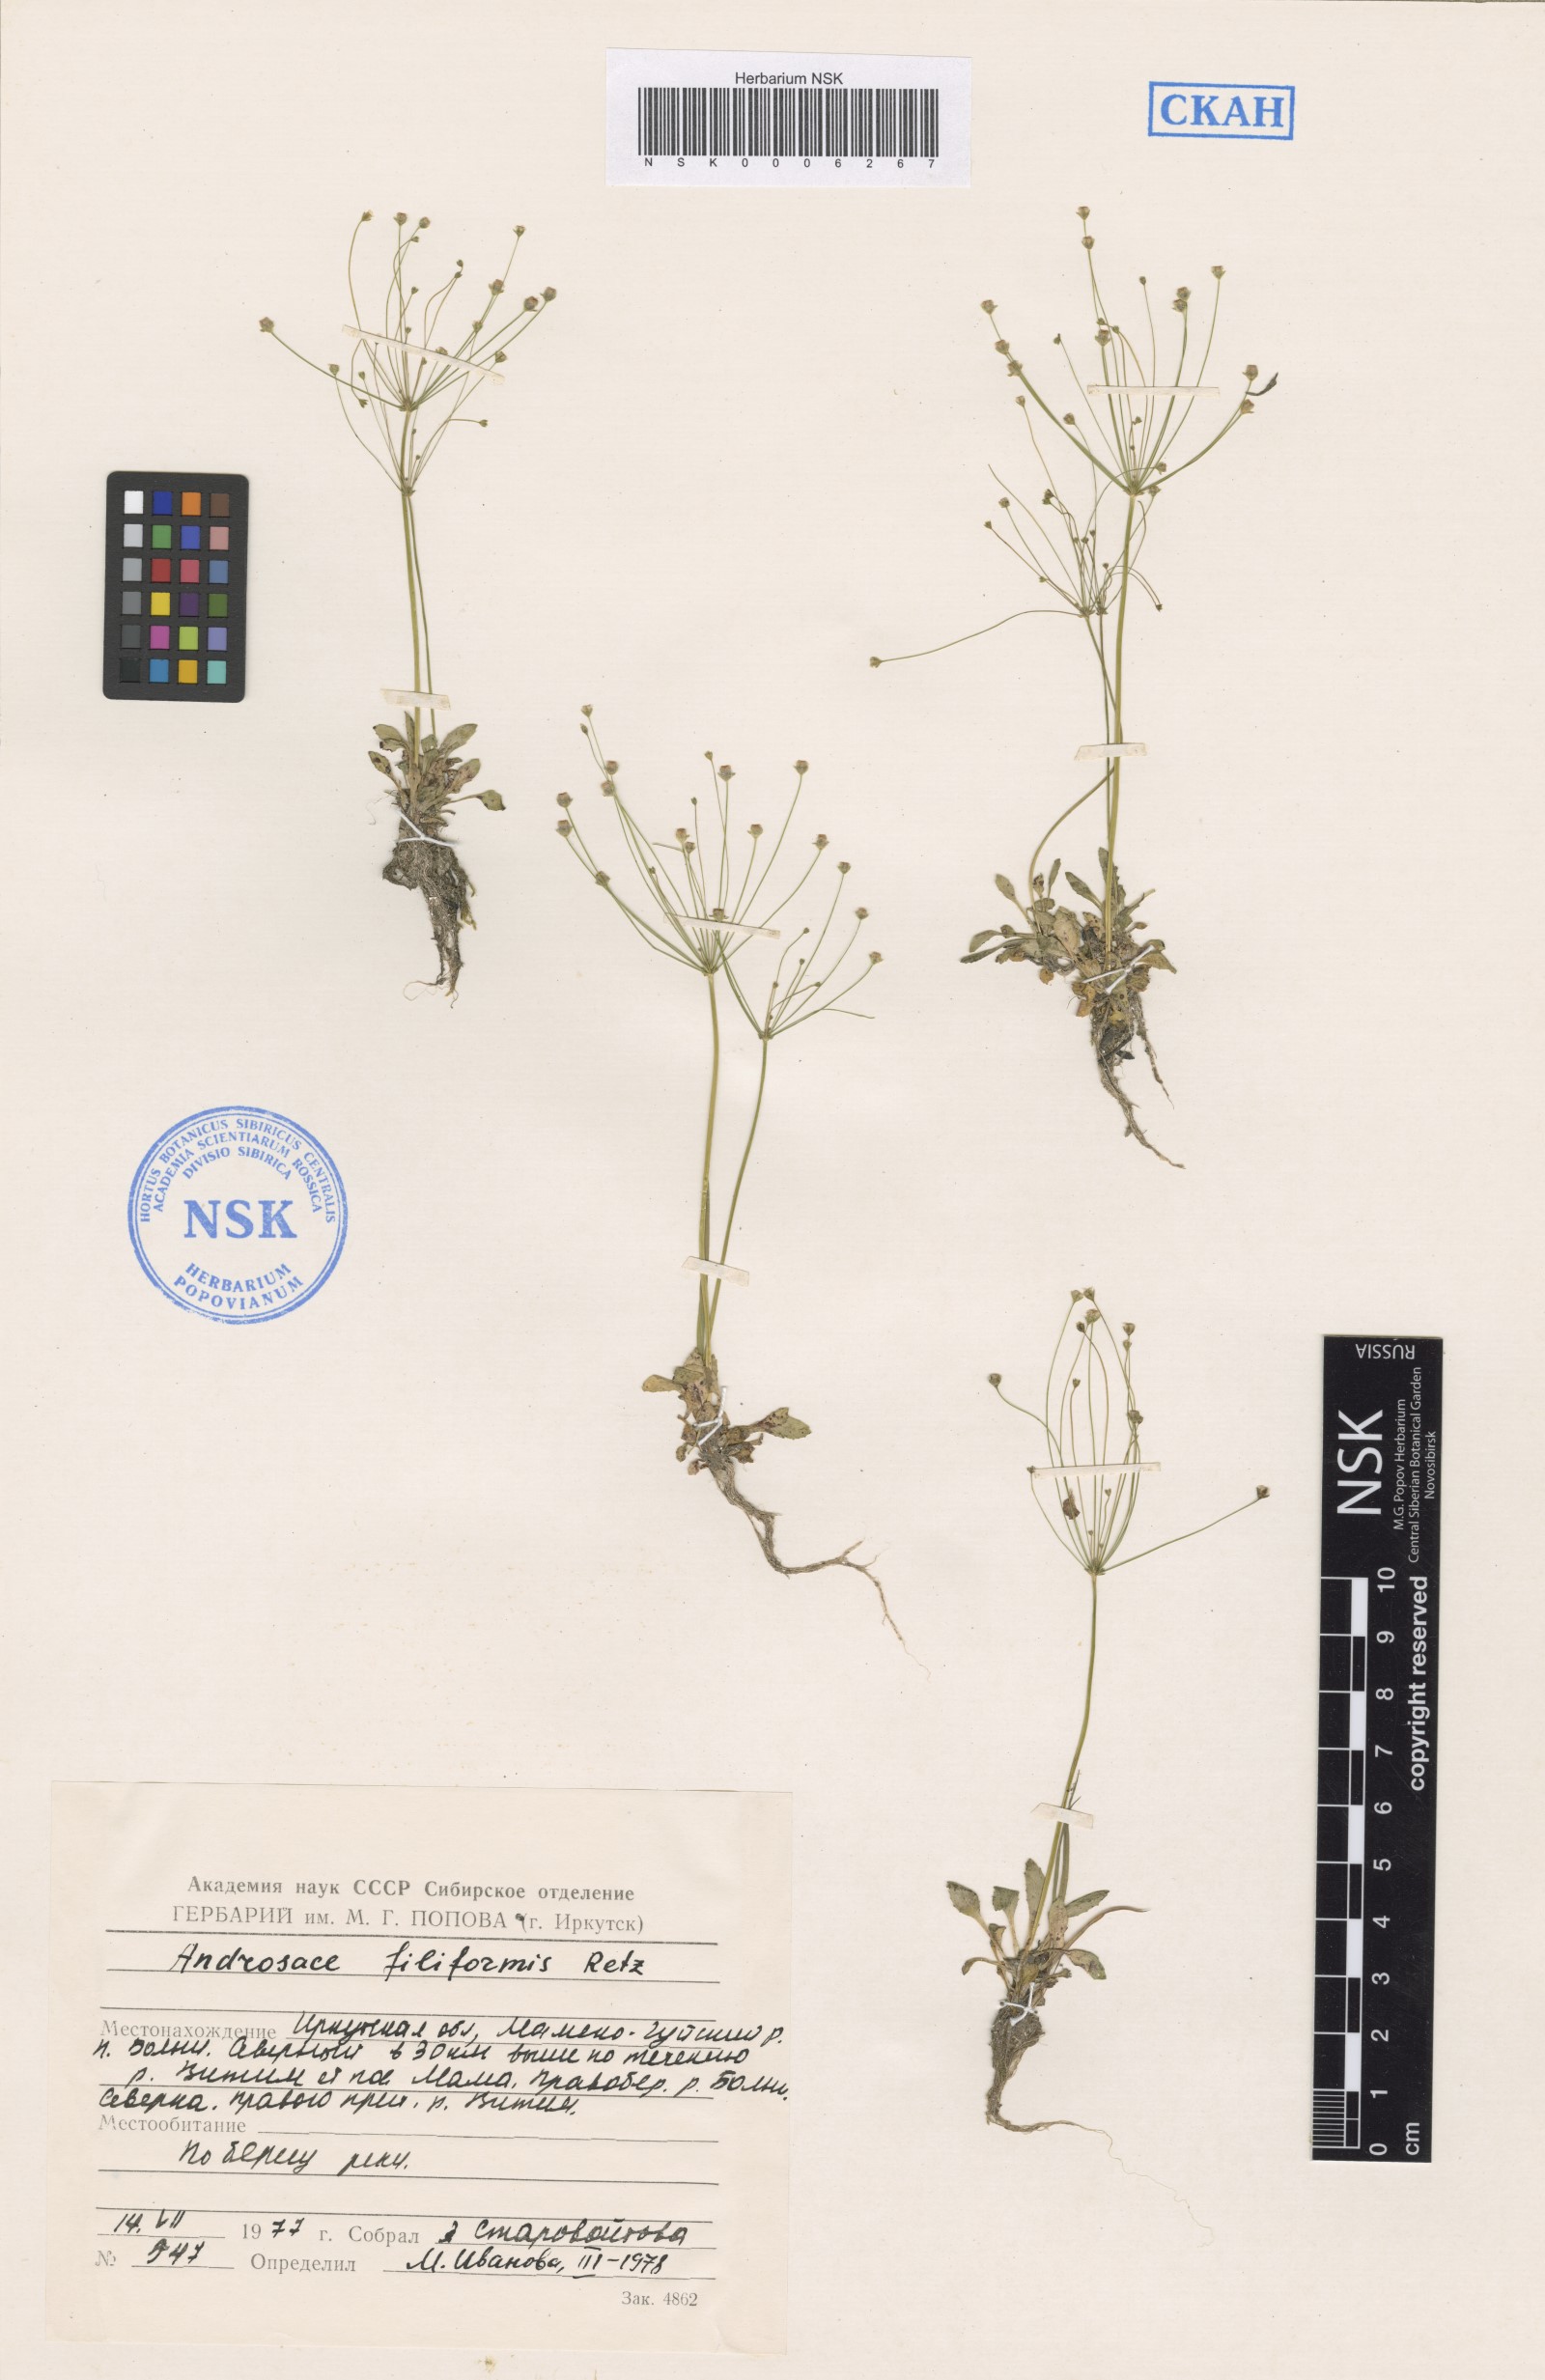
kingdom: Plantae
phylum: Tracheophyta
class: Magnoliopsida
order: Ericales
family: Primulaceae
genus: Androsace
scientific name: Androsace filiformis
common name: Filiform rock jasmine
